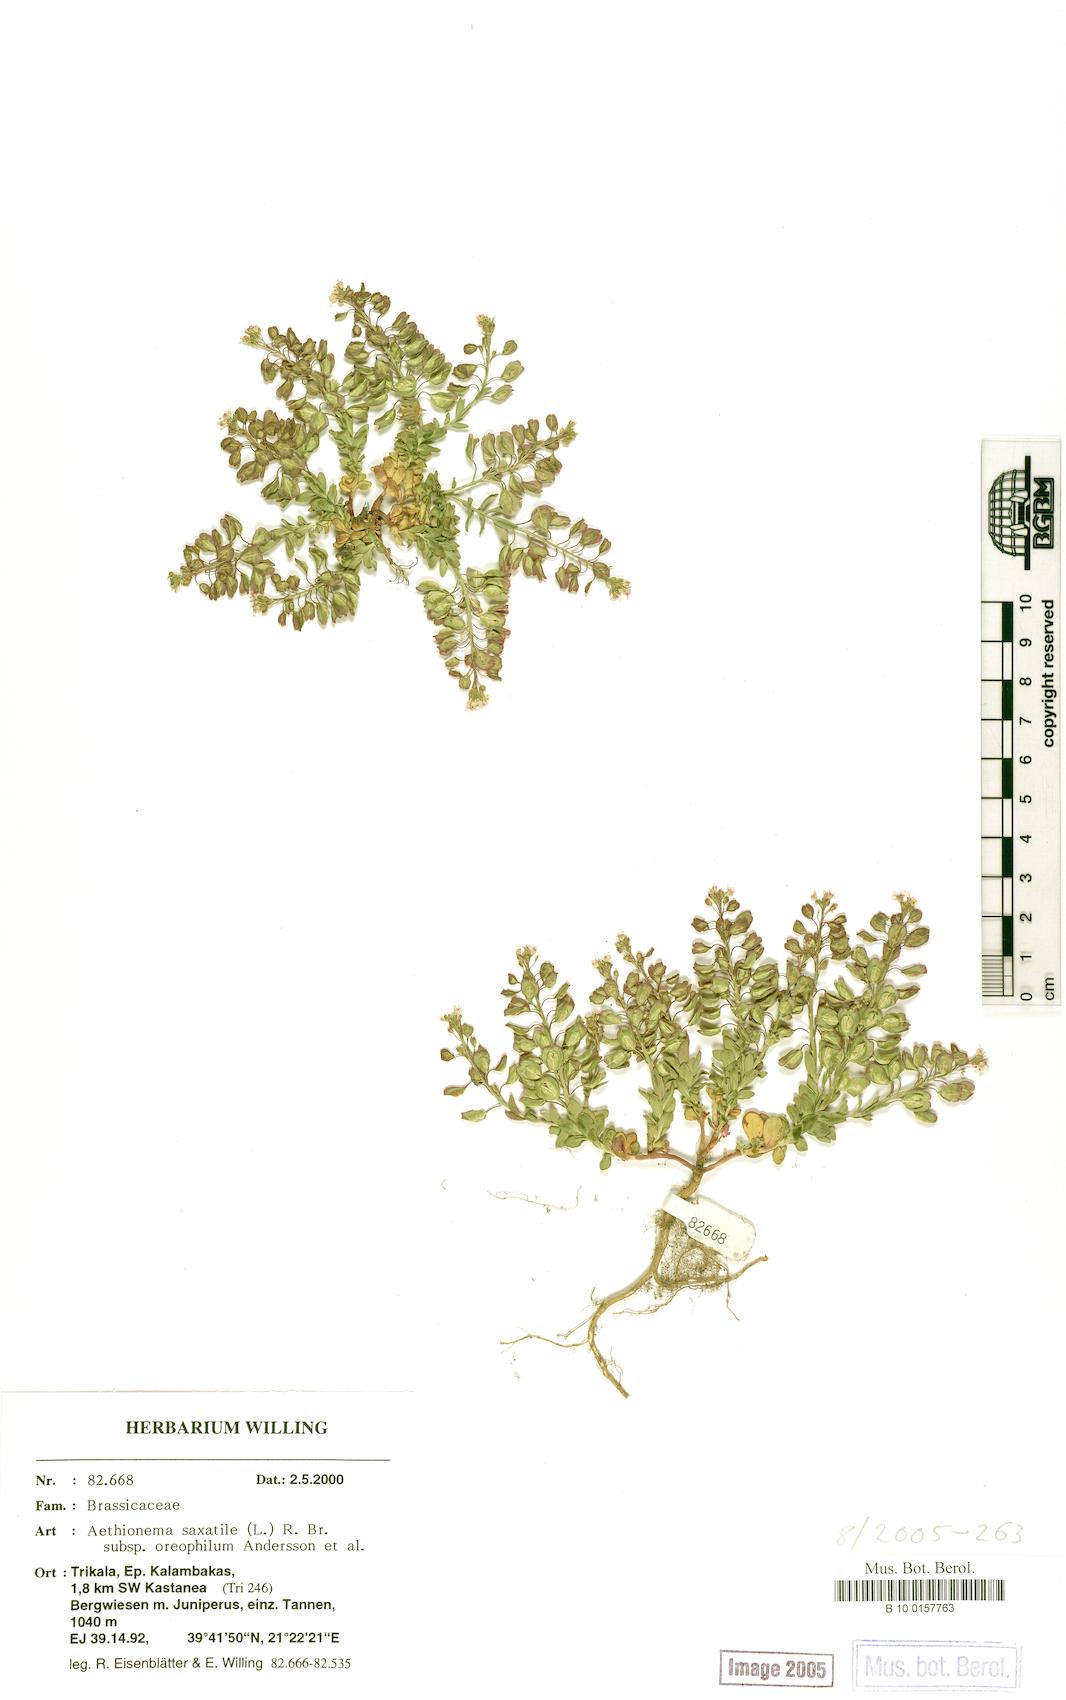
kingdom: Plantae
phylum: Tracheophyta
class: Magnoliopsida
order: Brassicales
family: Brassicaceae
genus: Aethionema
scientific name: Aethionema saxatile
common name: Burnt candytuft
